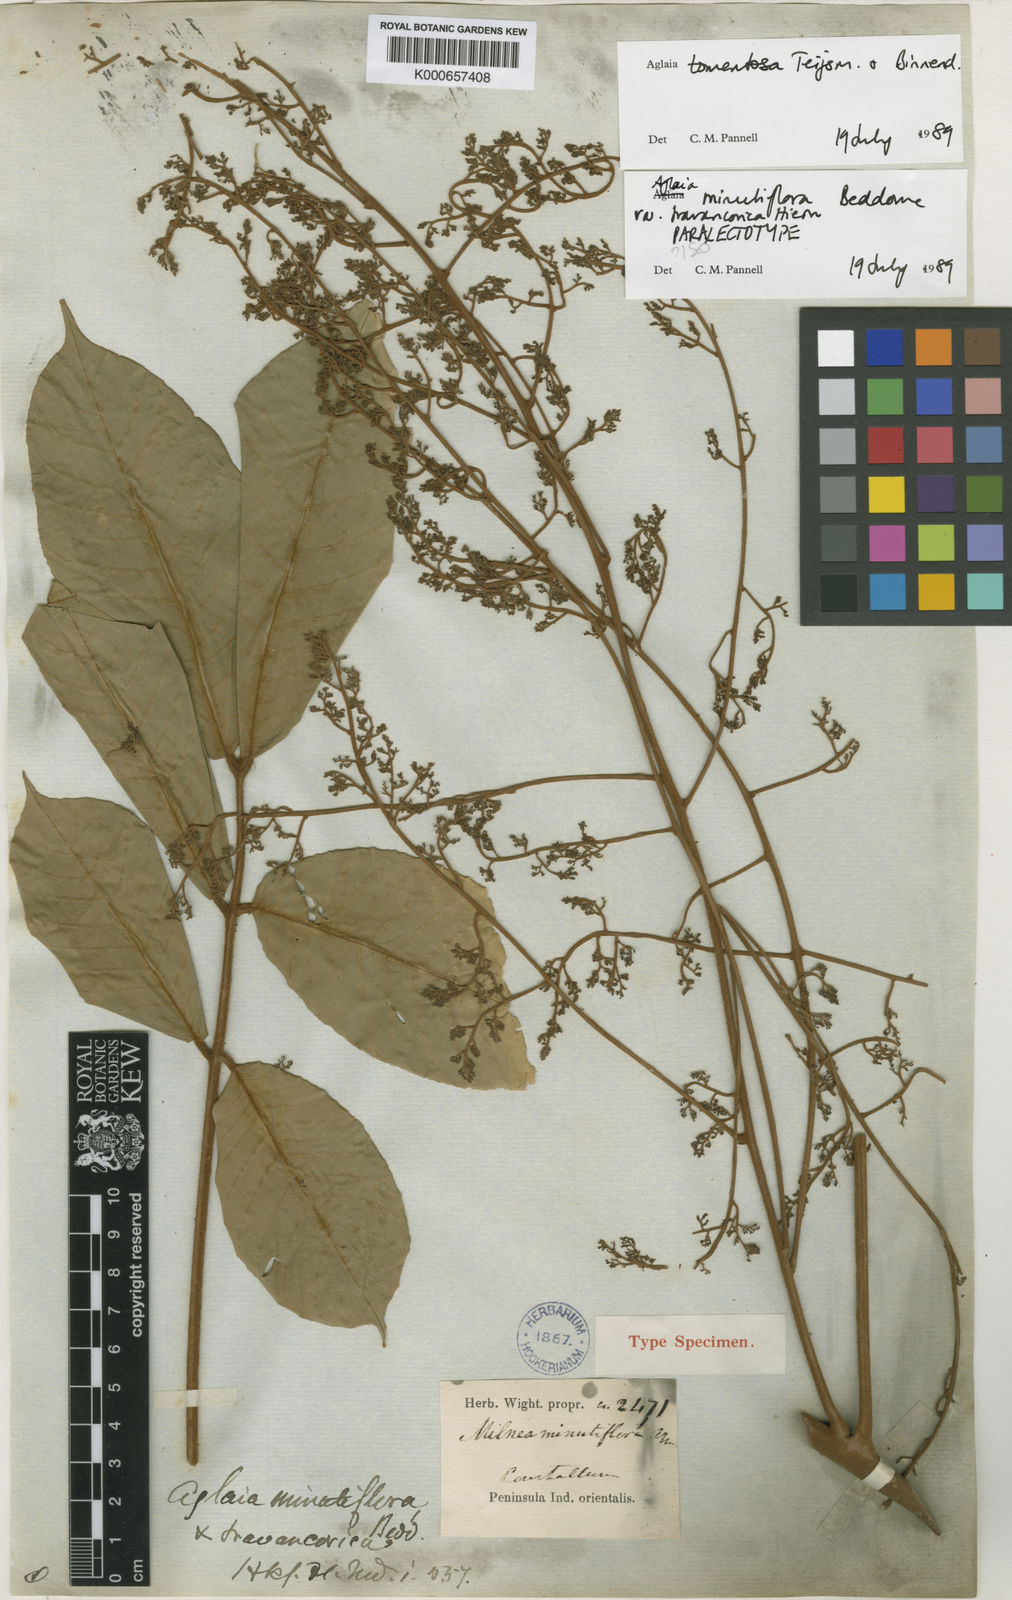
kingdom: Plantae
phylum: Tracheophyta
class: Magnoliopsida
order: Sapindales
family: Meliaceae
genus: Aglaia
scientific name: Aglaia tomentosa
